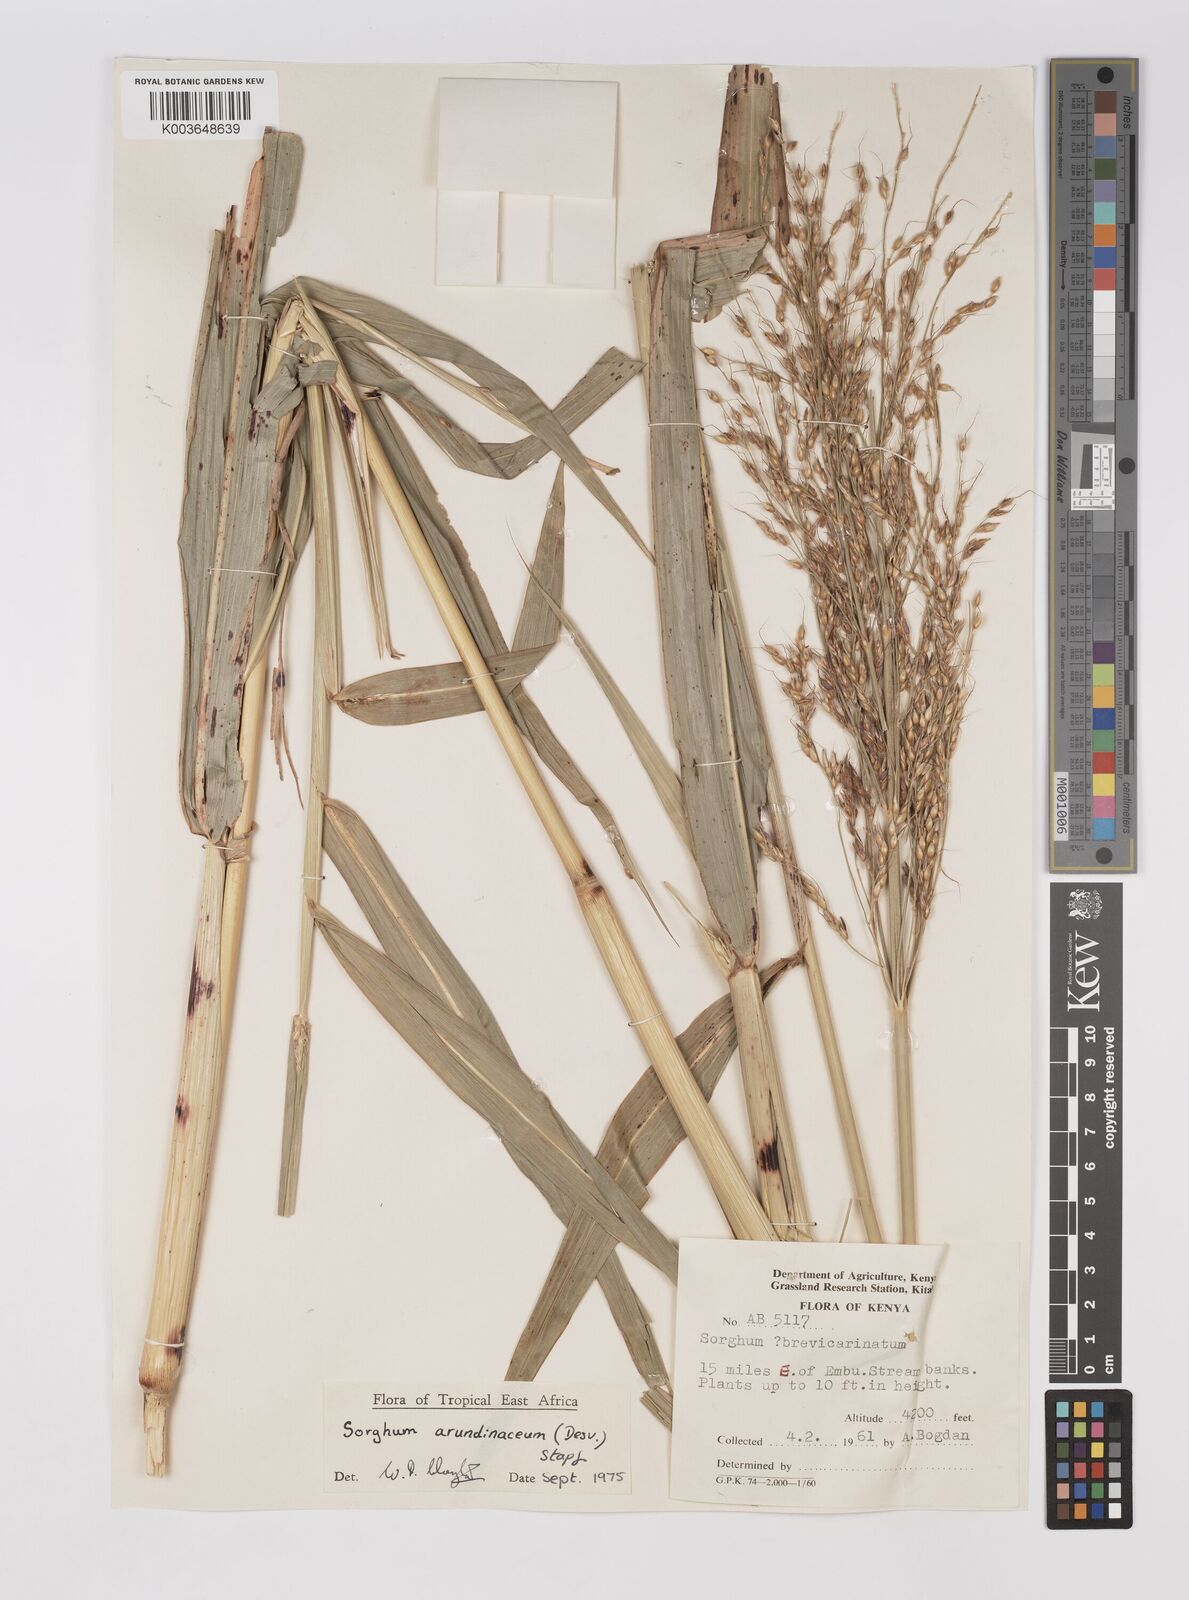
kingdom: Plantae
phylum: Tracheophyta
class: Liliopsida
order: Poales
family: Poaceae
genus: Sorghum
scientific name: Sorghum arundinaceum
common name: Sorghum
